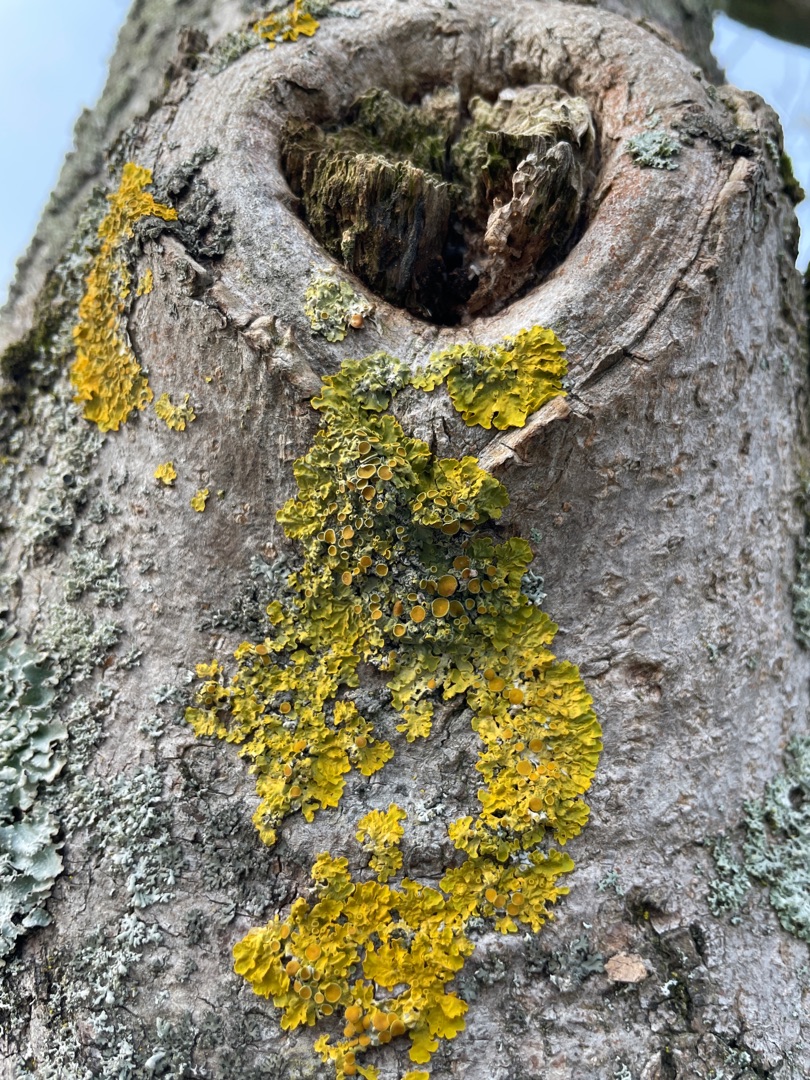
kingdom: Fungi
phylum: Ascomycota
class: Lecanoromycetes
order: Teloschistales
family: Teloschistaceae
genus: Xanthoria
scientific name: Xanthoria parietina
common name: Almindelig væggelav
